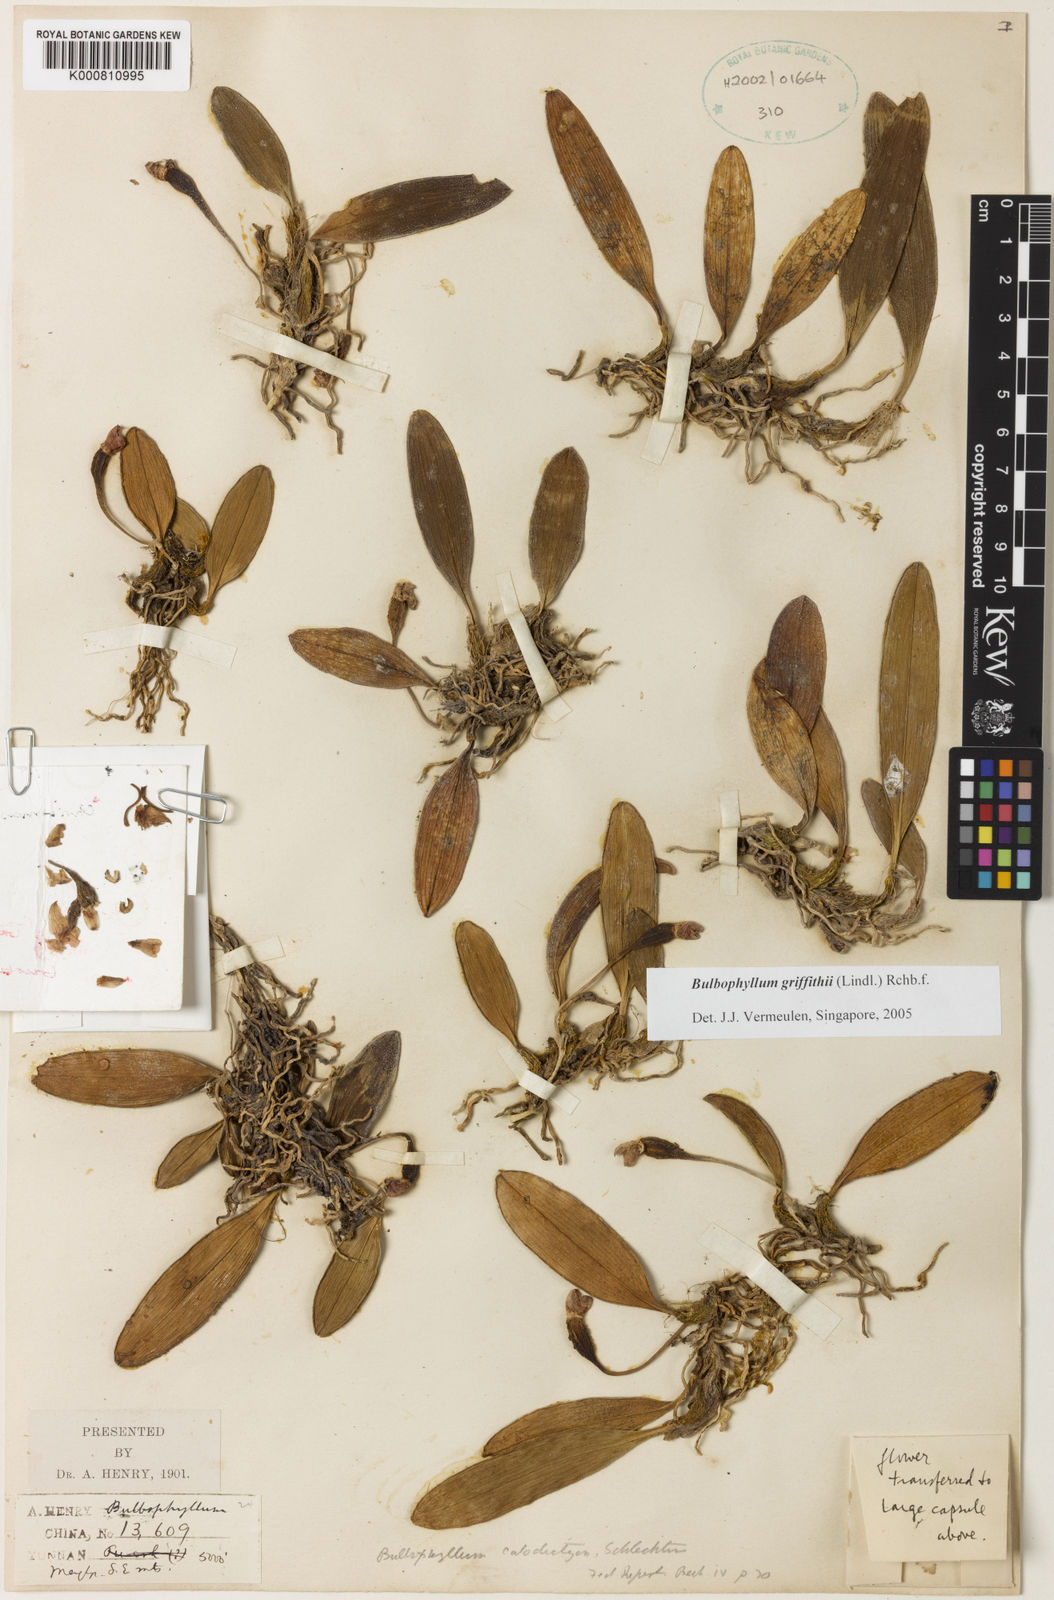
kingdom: Plantae
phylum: Tracheophyta
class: Liliopsida
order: Asparagales
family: Orchidaceae
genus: Bulbophyllum
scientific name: Bulbophyllum griffithii
